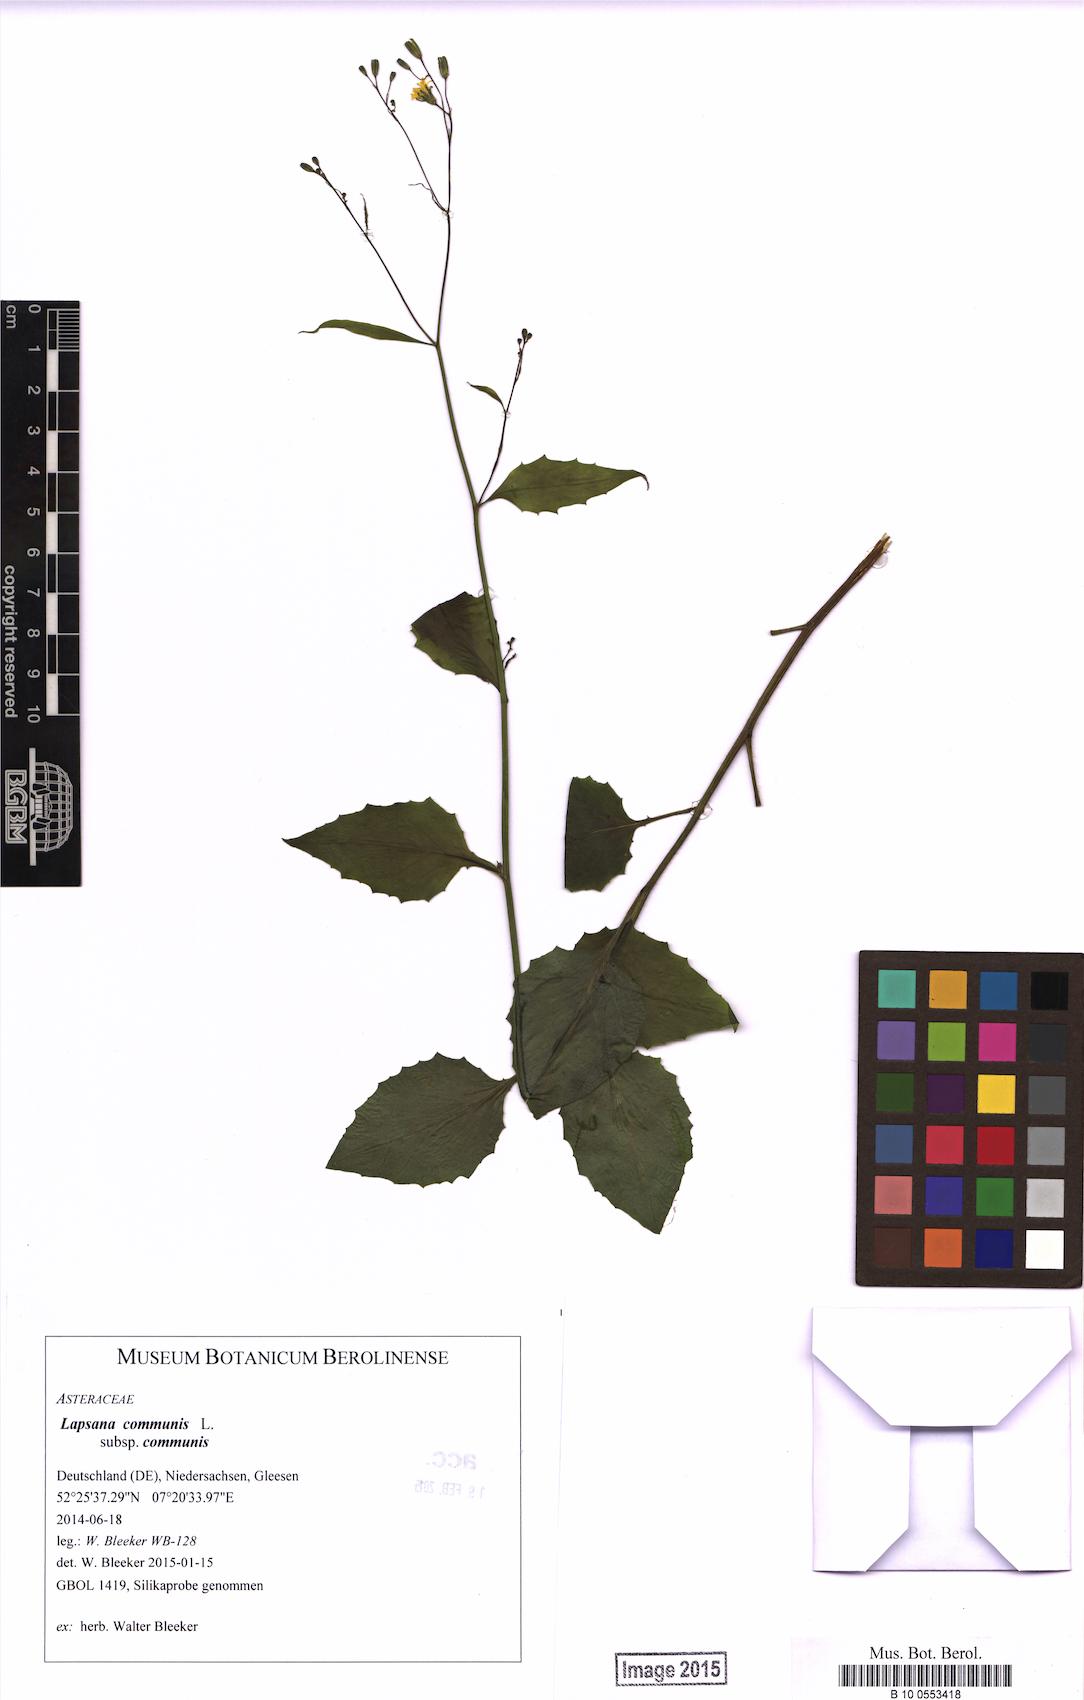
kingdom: Plantae
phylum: Tracheophyta
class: Magnoliopsida
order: Asterales
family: Asteraceae
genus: Lapsana
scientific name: Lapsana communis
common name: Nipplewort
